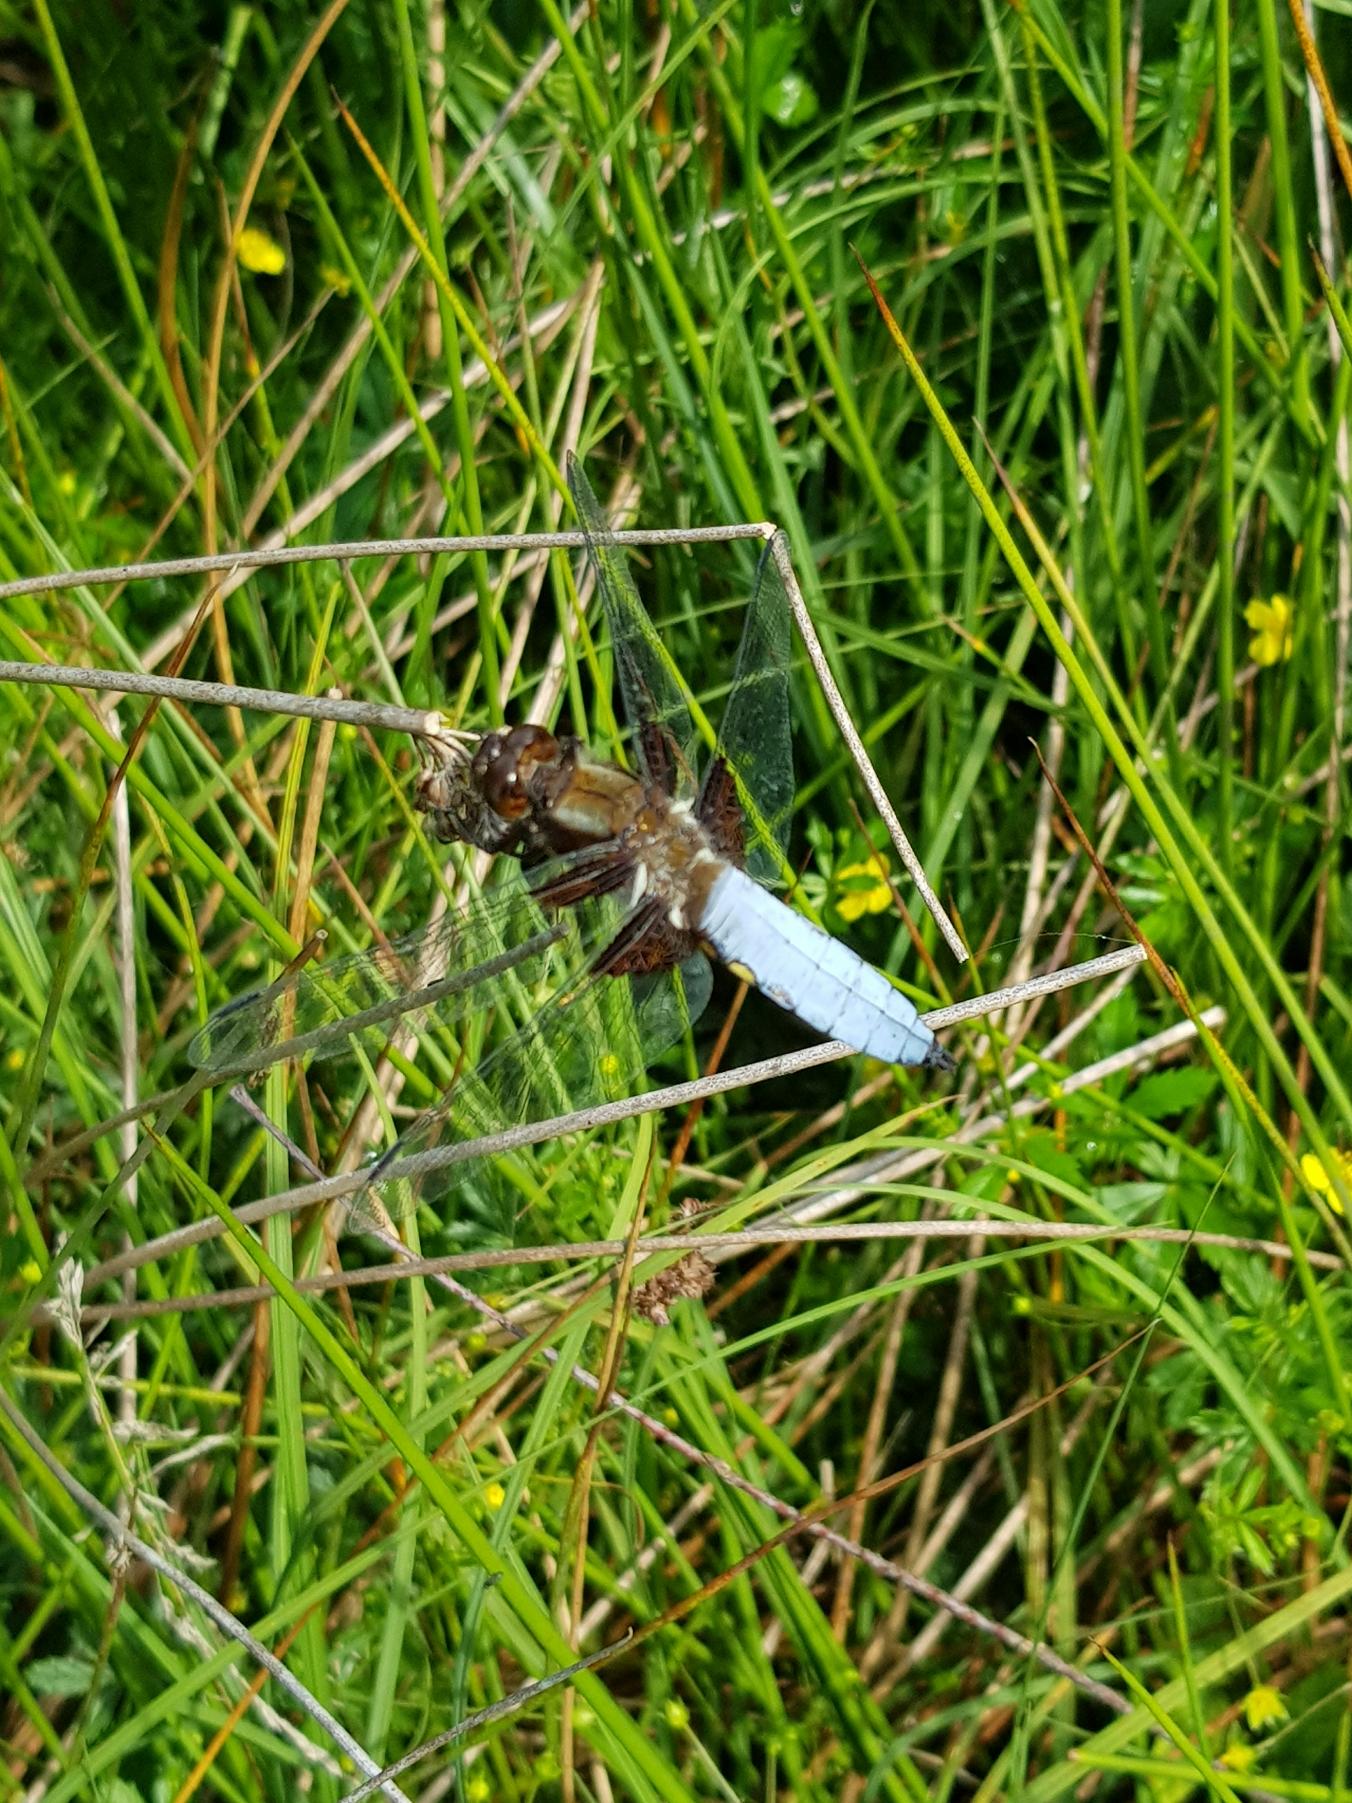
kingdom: Animalia
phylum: Arthropoda
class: Insecta
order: Odonata
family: Libellulidae
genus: Libellula
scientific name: Libellula depressa
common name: Blå libel
